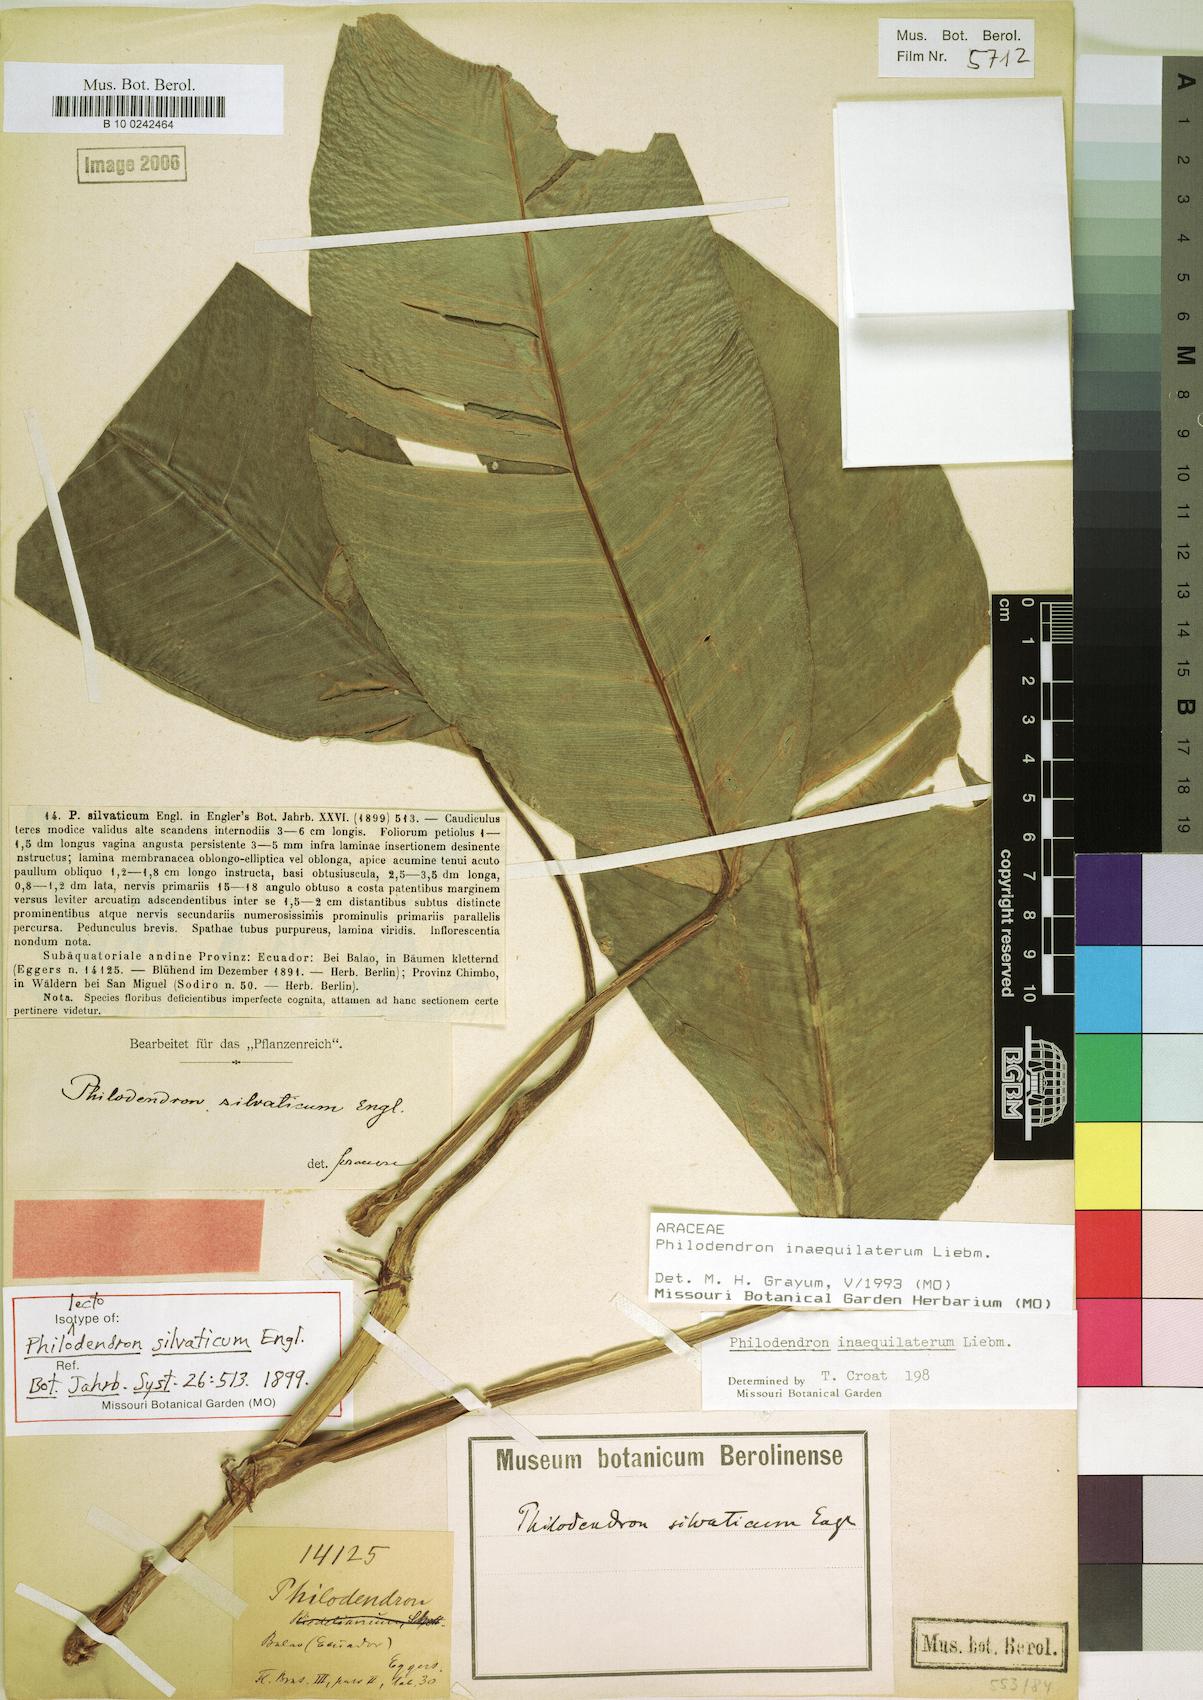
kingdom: Plantae
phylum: Tracheophyta
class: Liliopsida
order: Alismatales
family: Araceae
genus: Philodendron
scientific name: Philodendron inaequilaterum
